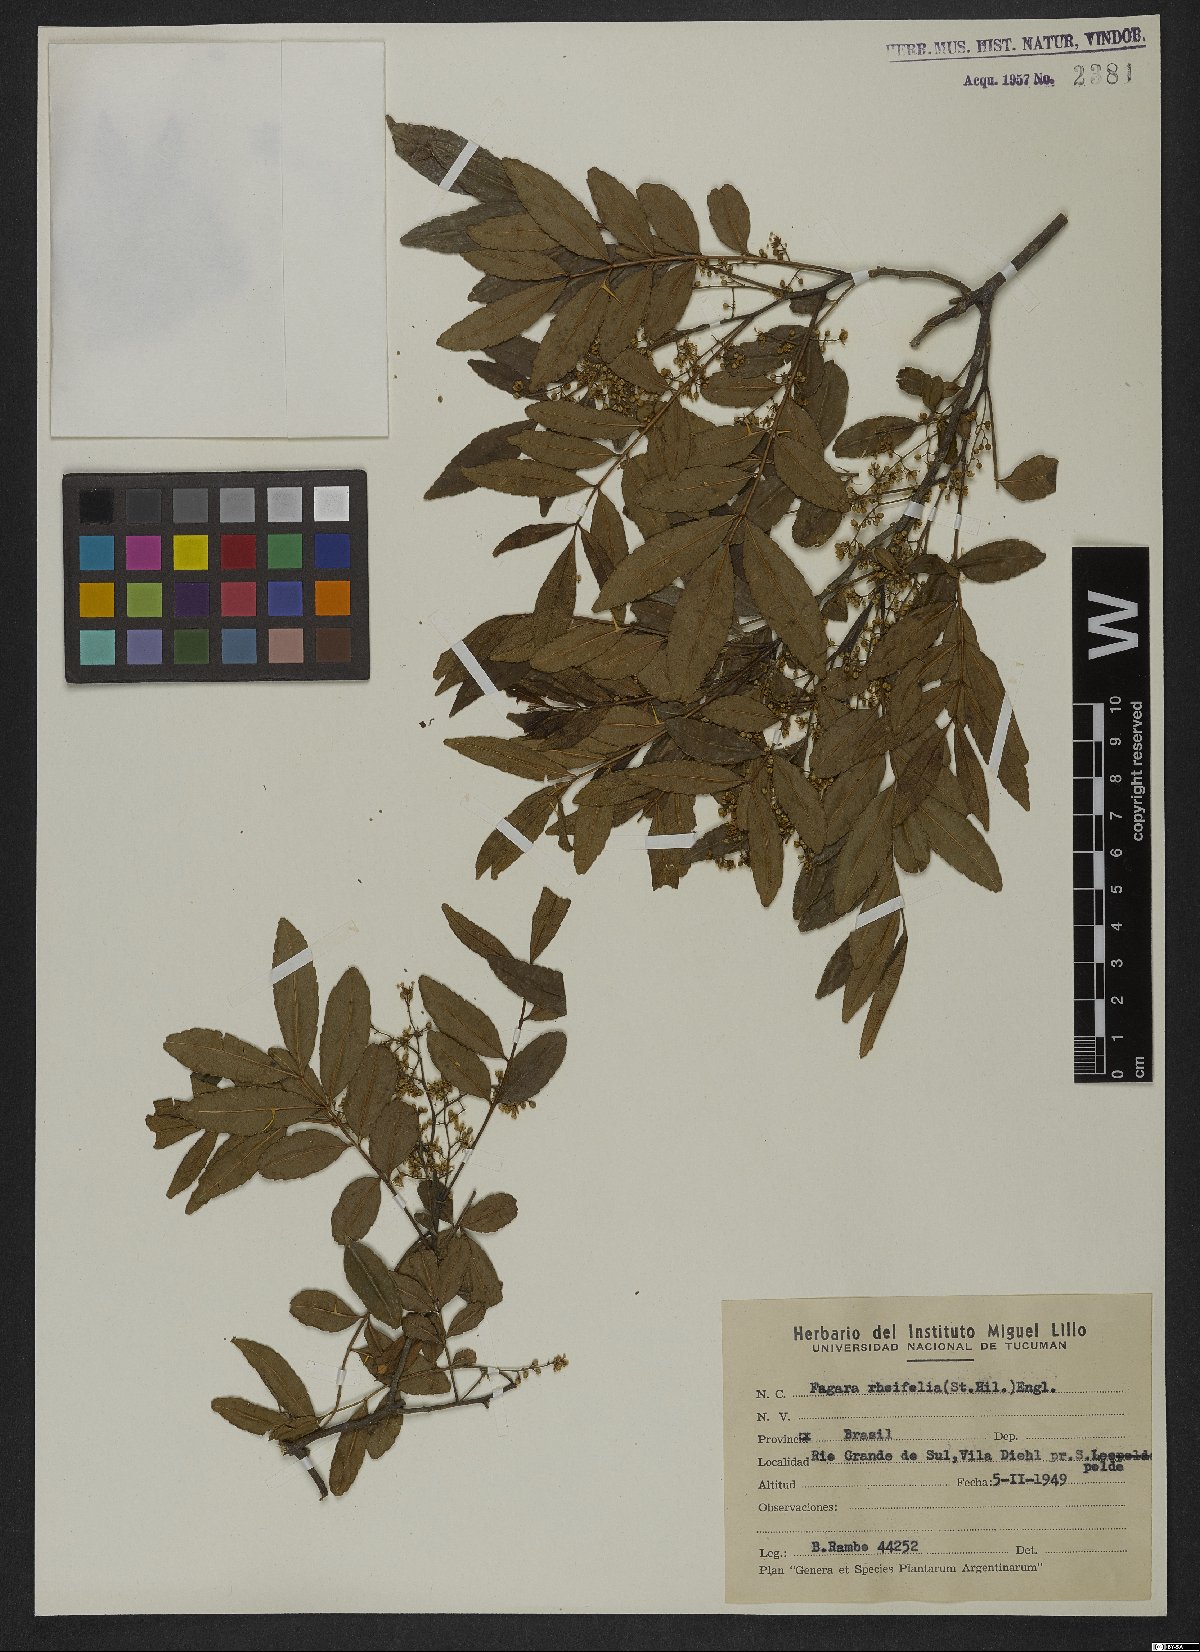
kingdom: Plantae
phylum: Tracheophyta
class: Magnoliopsida
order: Sapindales
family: Rutaceae
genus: Zanthoxylum
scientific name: Zanthoxylum rhoifolium
